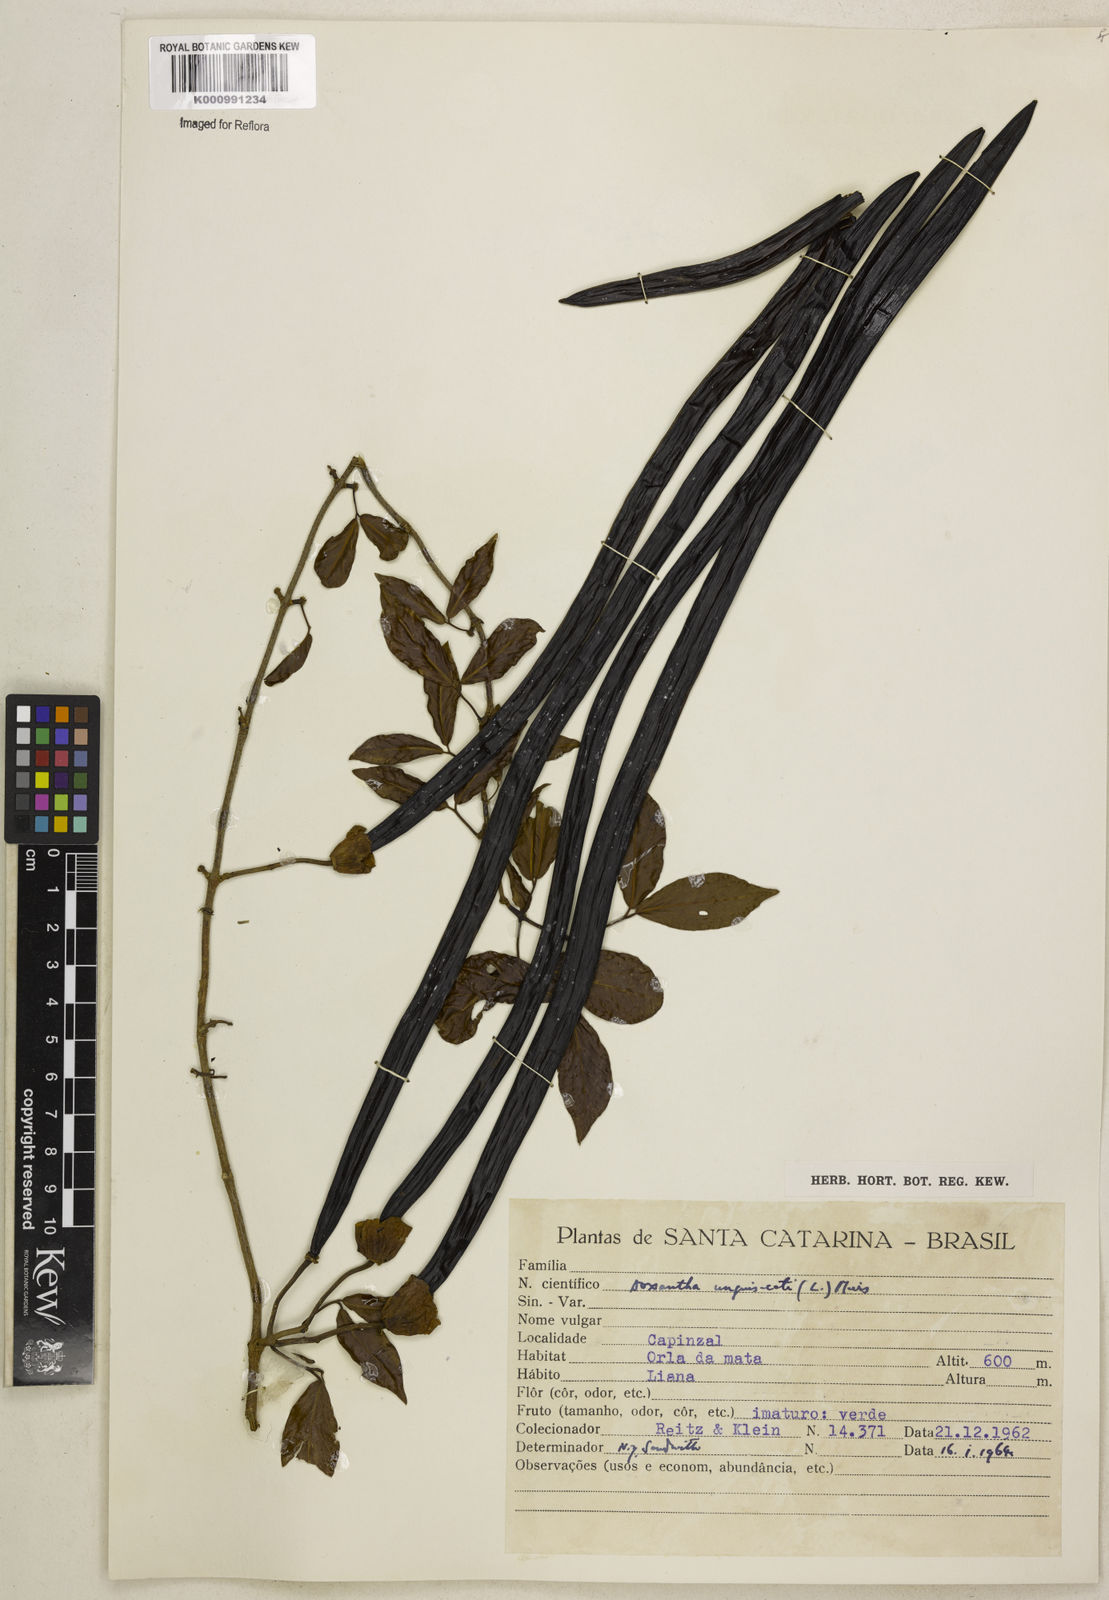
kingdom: Plantae
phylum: Tracheophyta
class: Magnoliopsida
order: Lamiales
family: Bignoniaceae
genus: Dolichandra
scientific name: Dolichandra unguis-cati
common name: Catclaw vine
